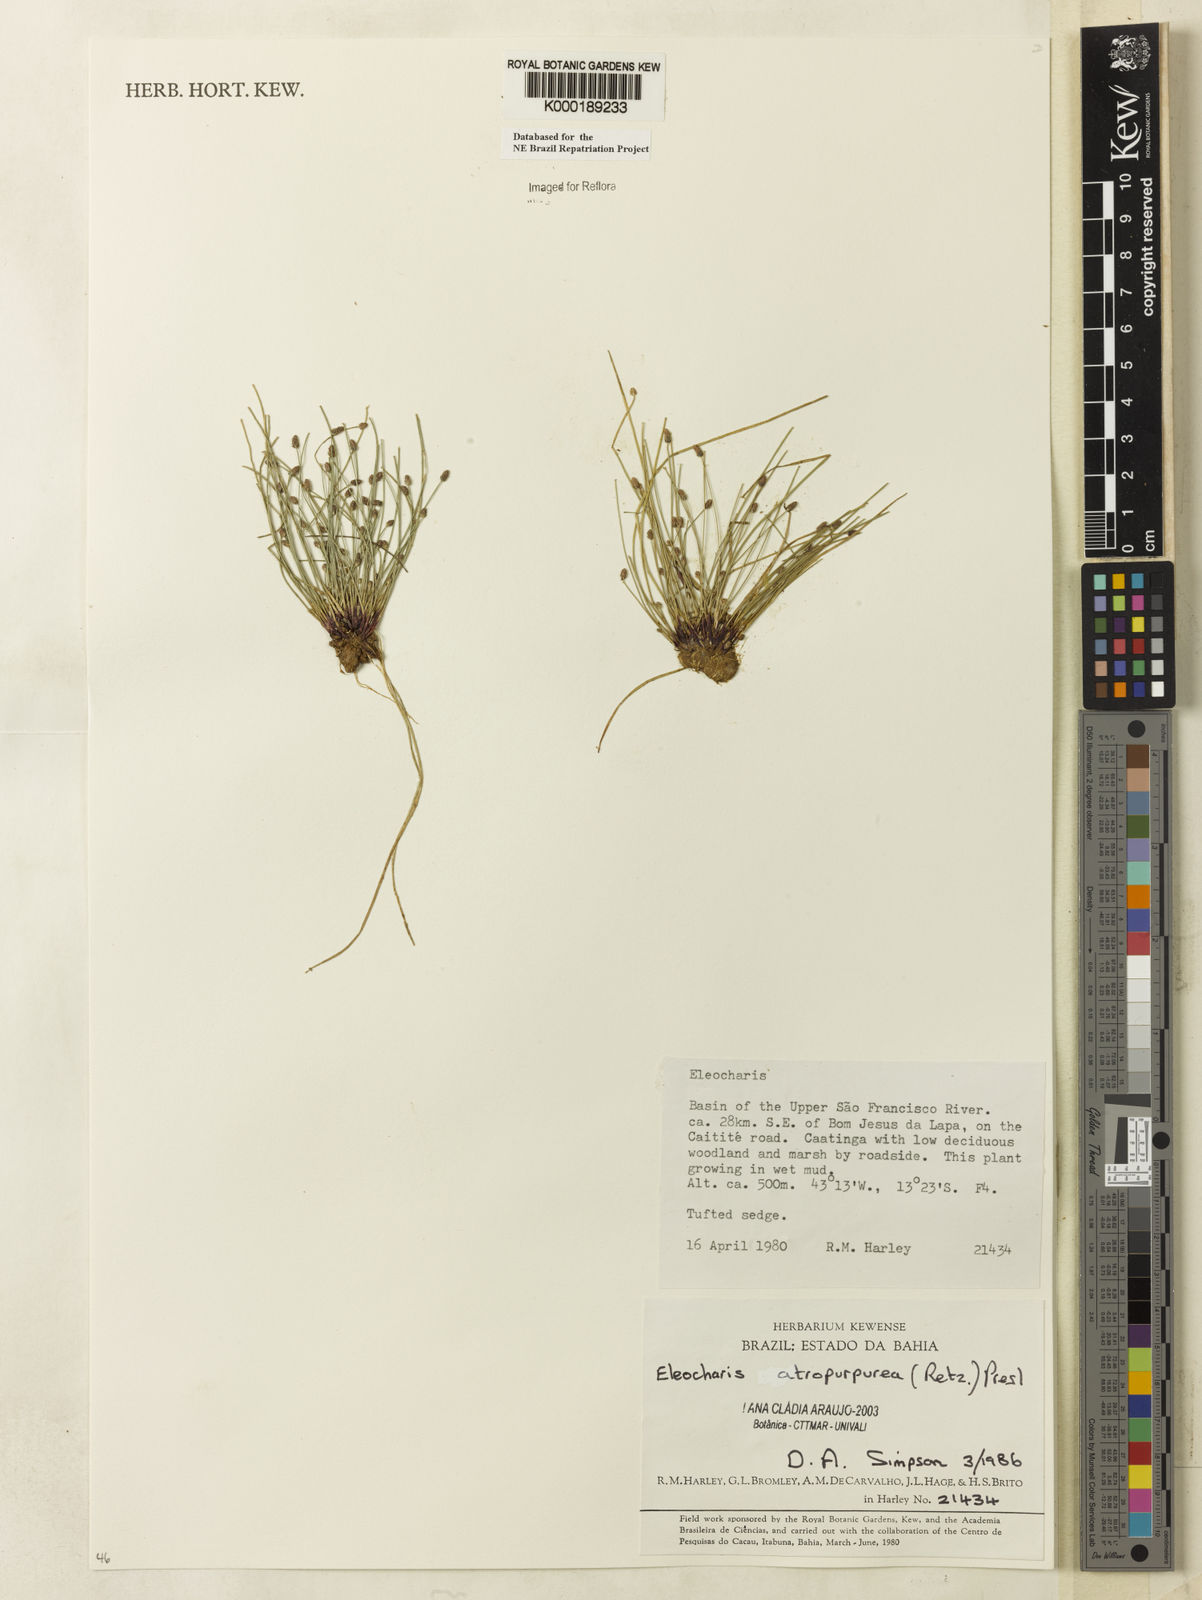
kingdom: Plantae
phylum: Tracheophyta
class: Liliopsida
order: Poales
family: Cyperaceae
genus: Eleocharis
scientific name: Eleocharis atropurpurea
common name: Purple spikerush
